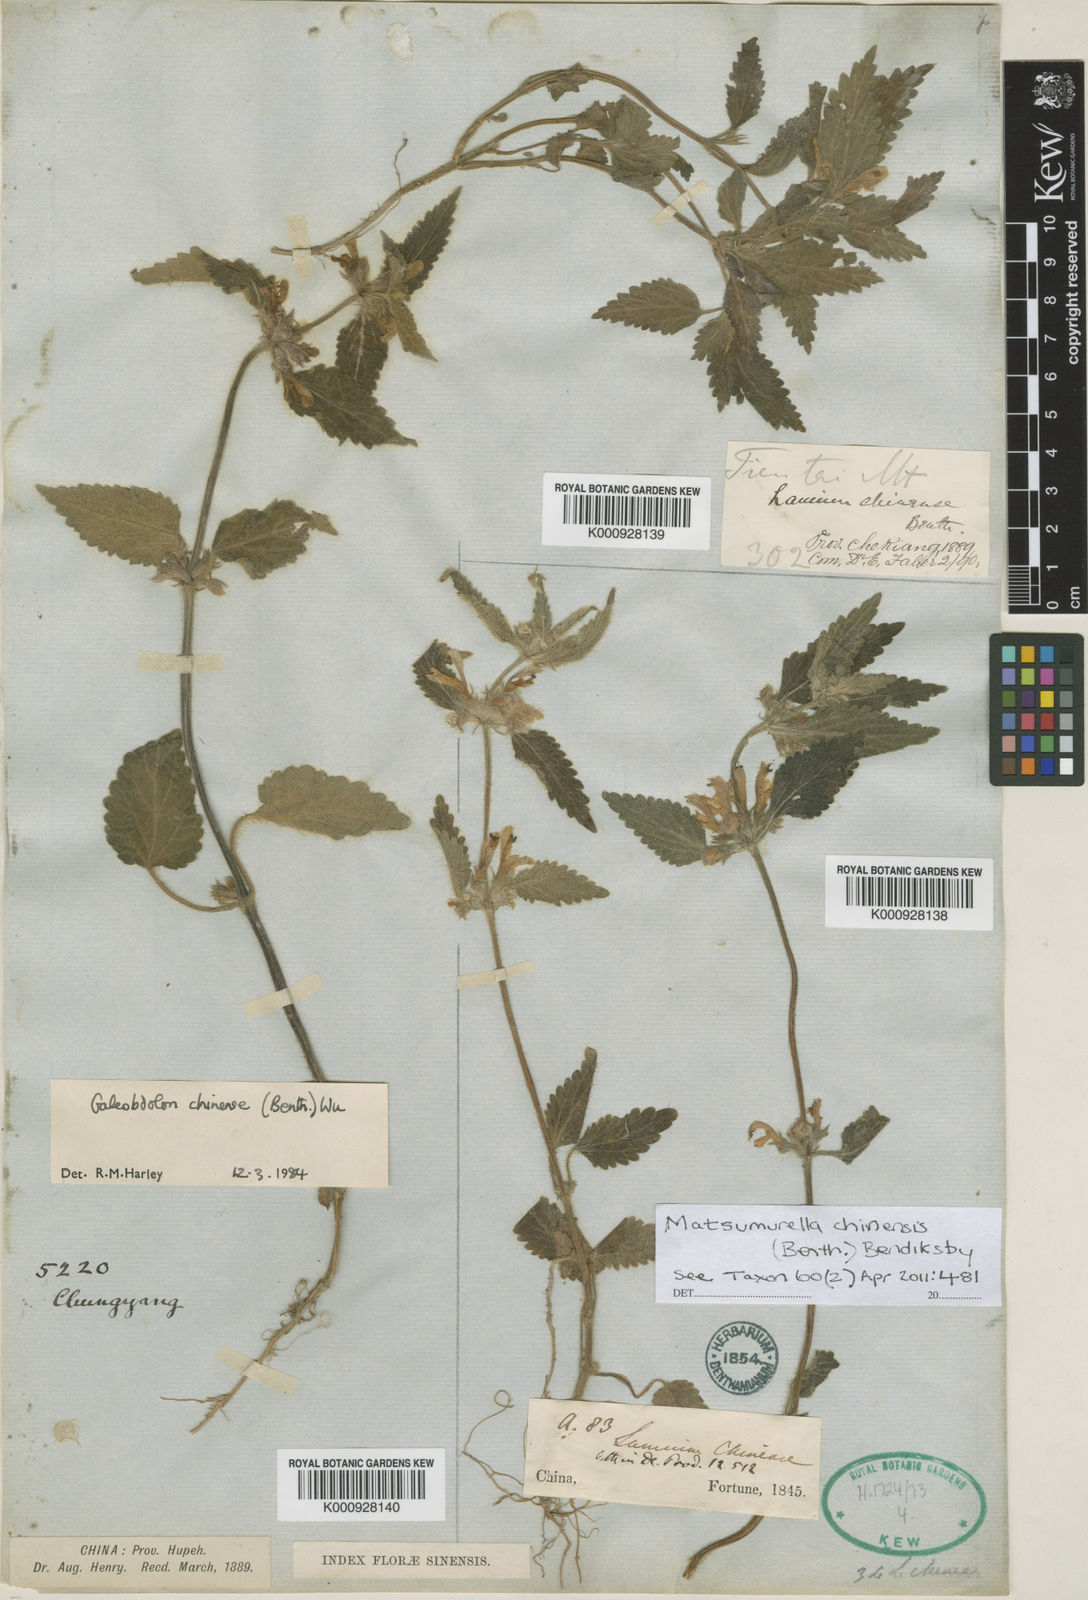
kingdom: Plantae
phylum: Tracheophyta
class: Magnoliopsida
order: Lamiales
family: Lamiaceae
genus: Matsumurella
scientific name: Matsumurella chinensis
